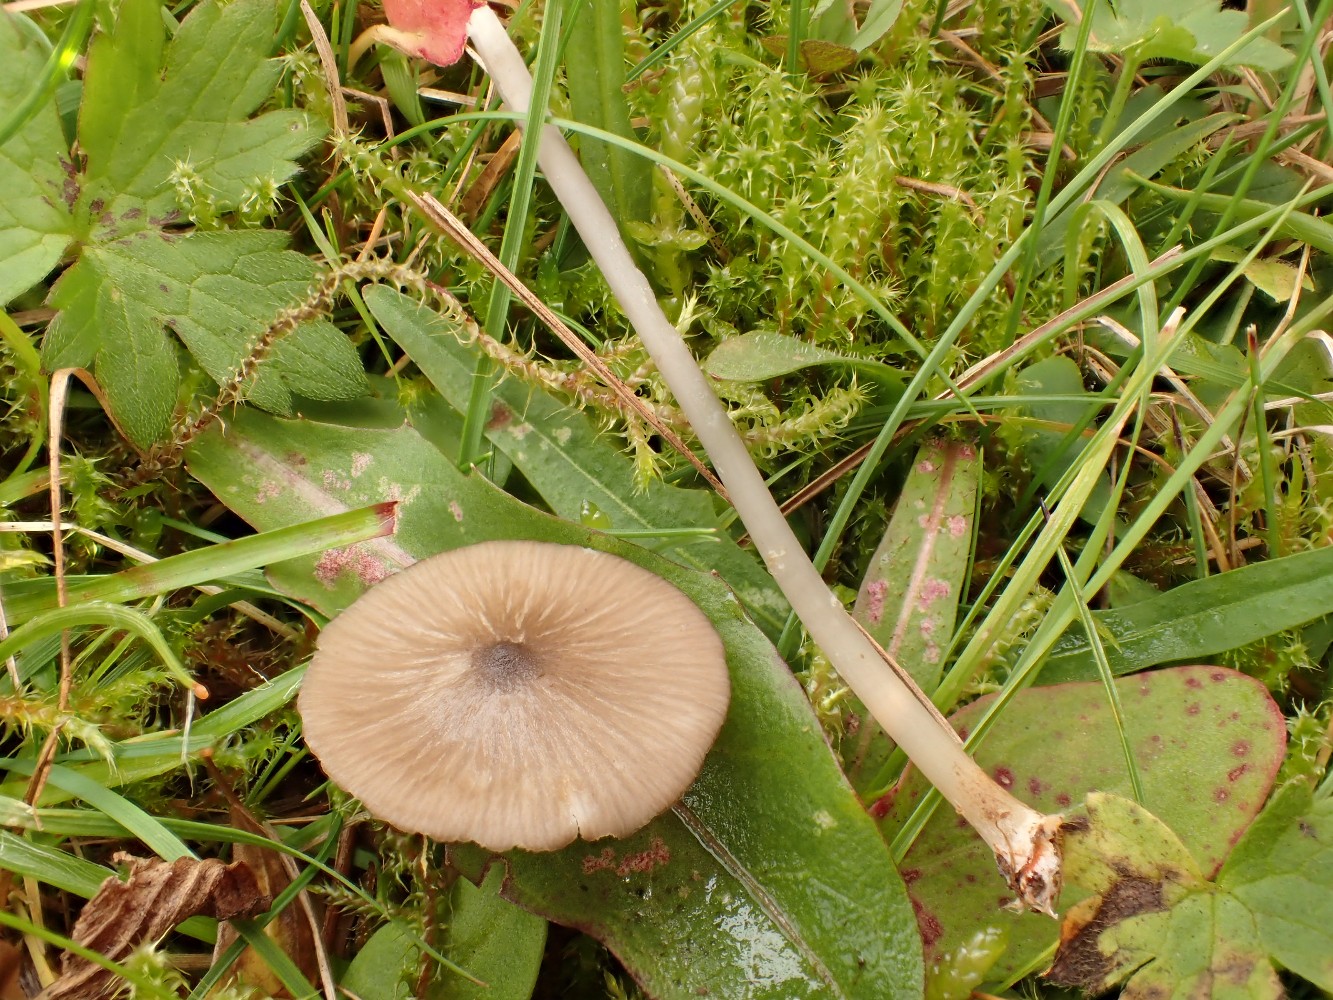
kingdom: Fungi
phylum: Basidiomycota
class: Agaricomycetes
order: Agaricales
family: Entolomataceae
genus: Entoloma
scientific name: Entoloma exile
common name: rødplettet rødblad
